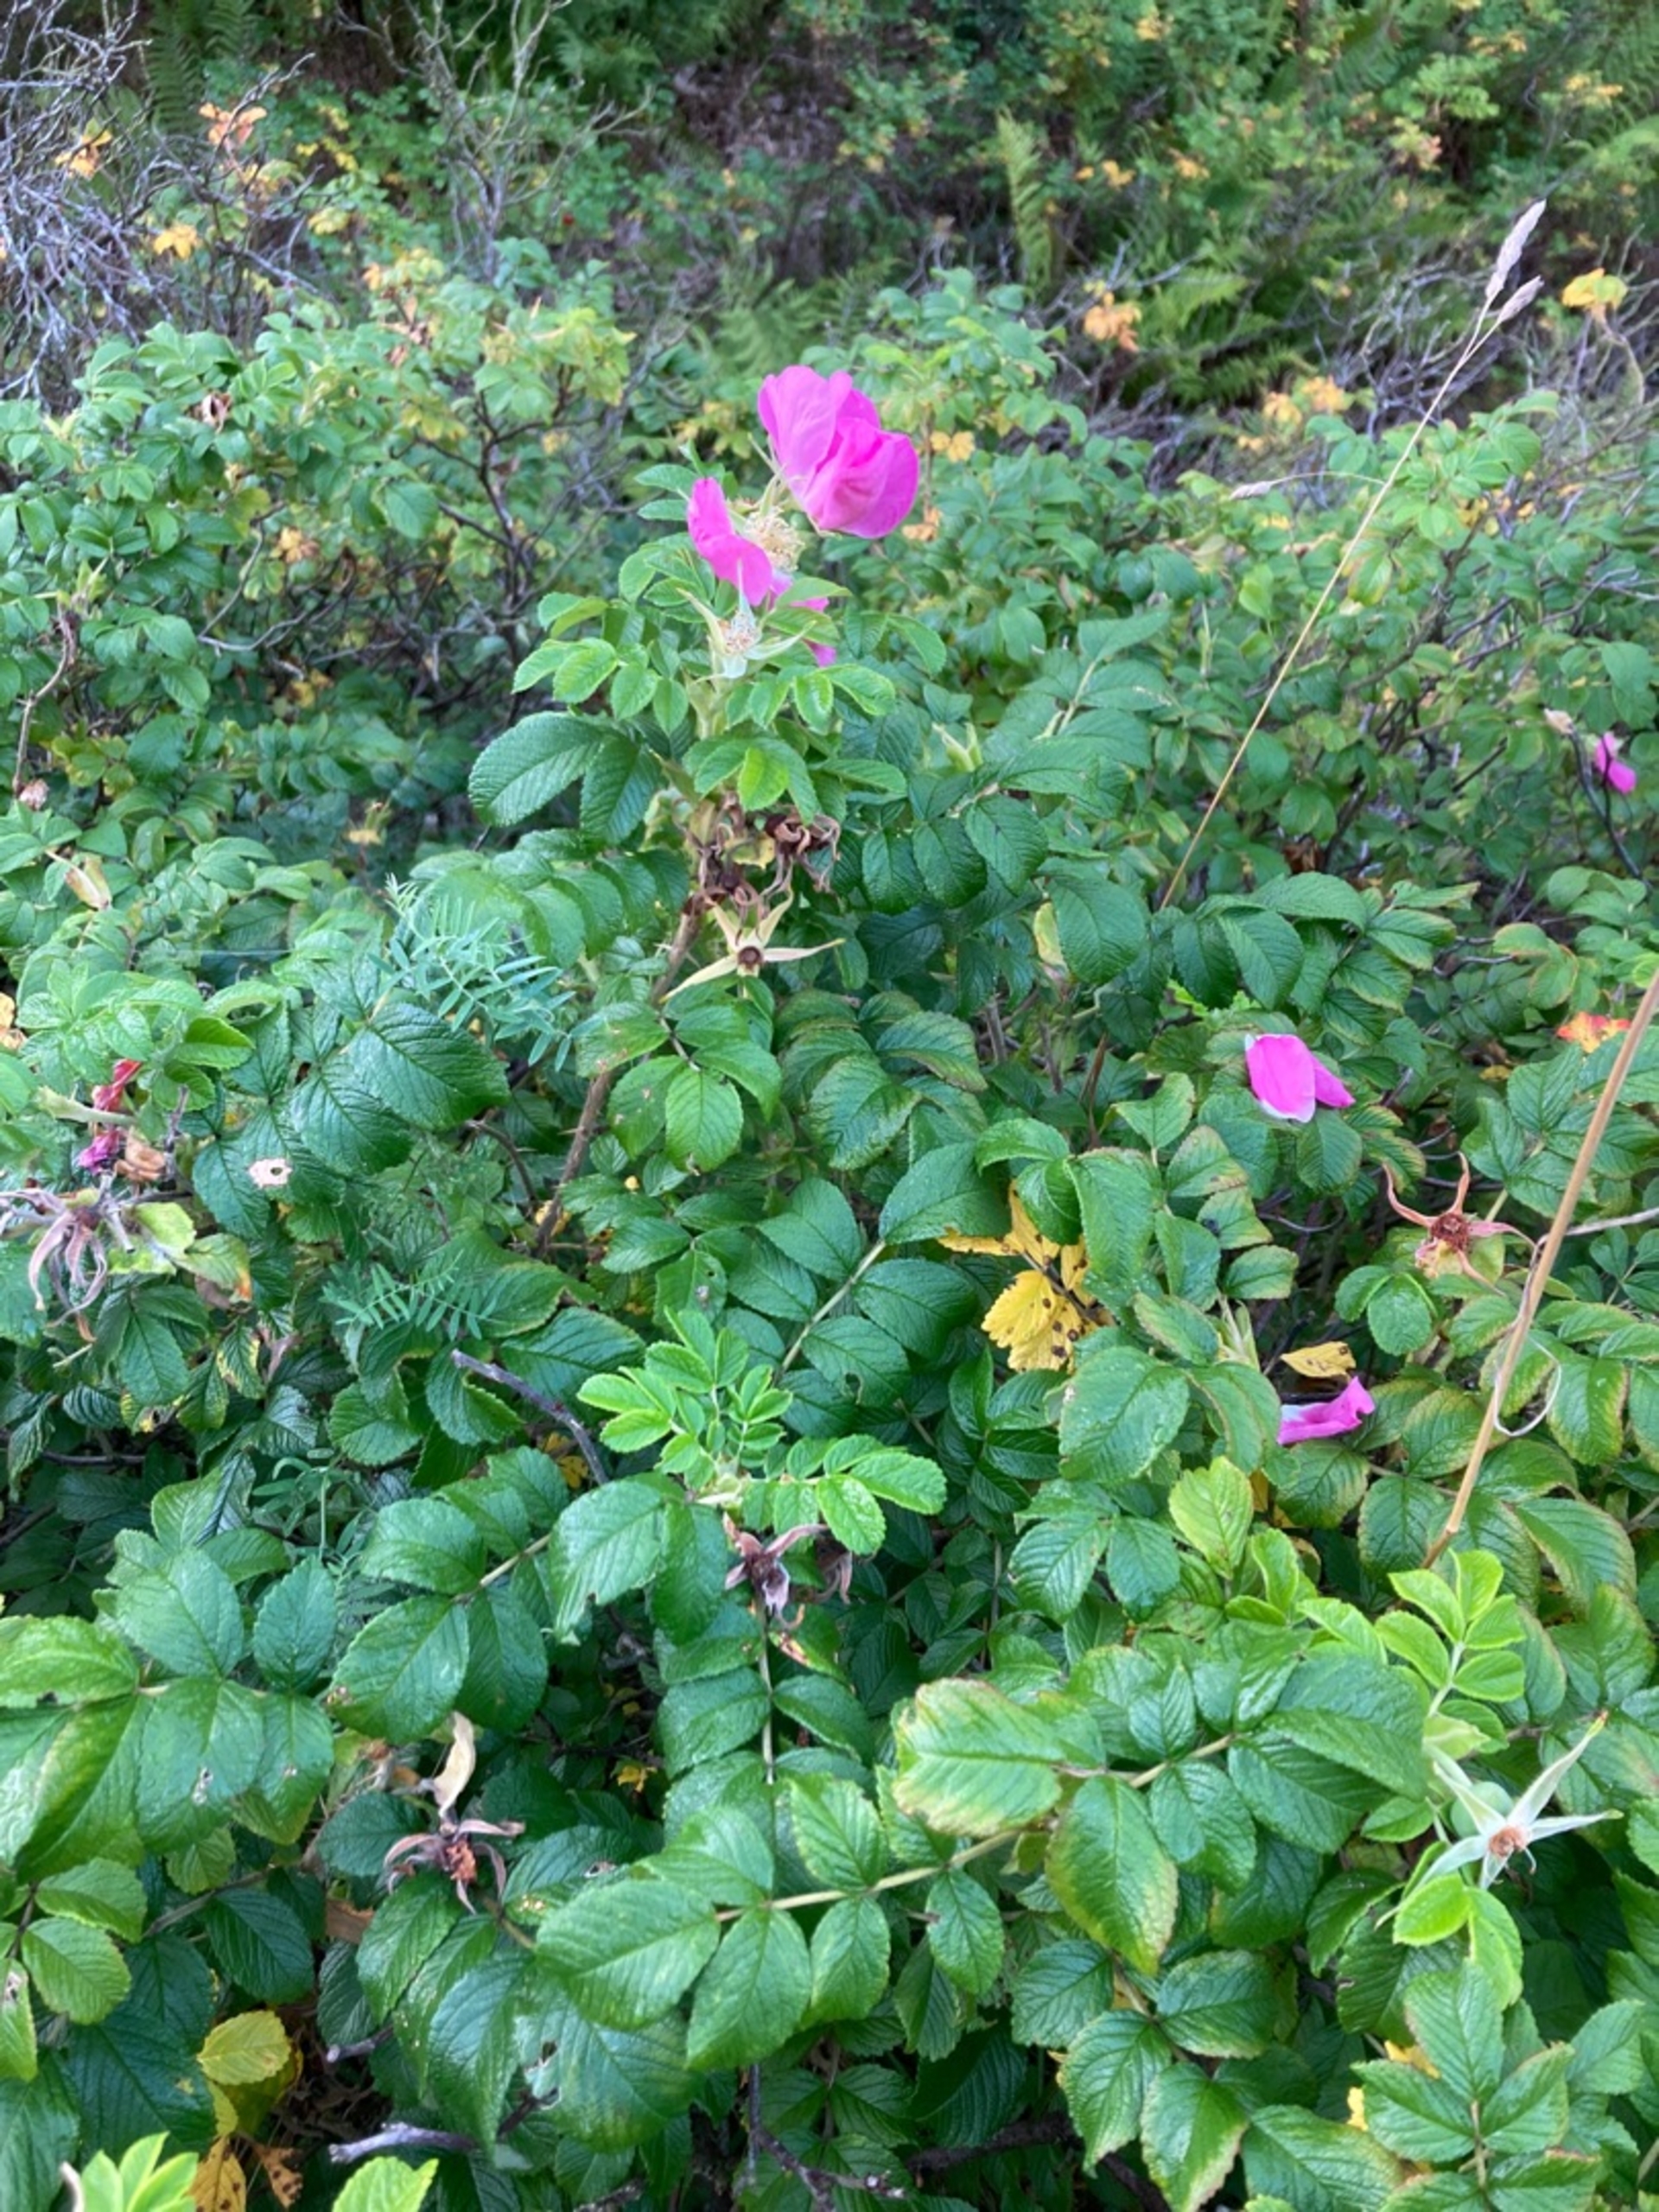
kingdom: Plantae
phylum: Tracheophyta
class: Magnoliopsida
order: Rosales
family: Rosaceae
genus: Rosa
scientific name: Rosa rugosa
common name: Rynket rose
